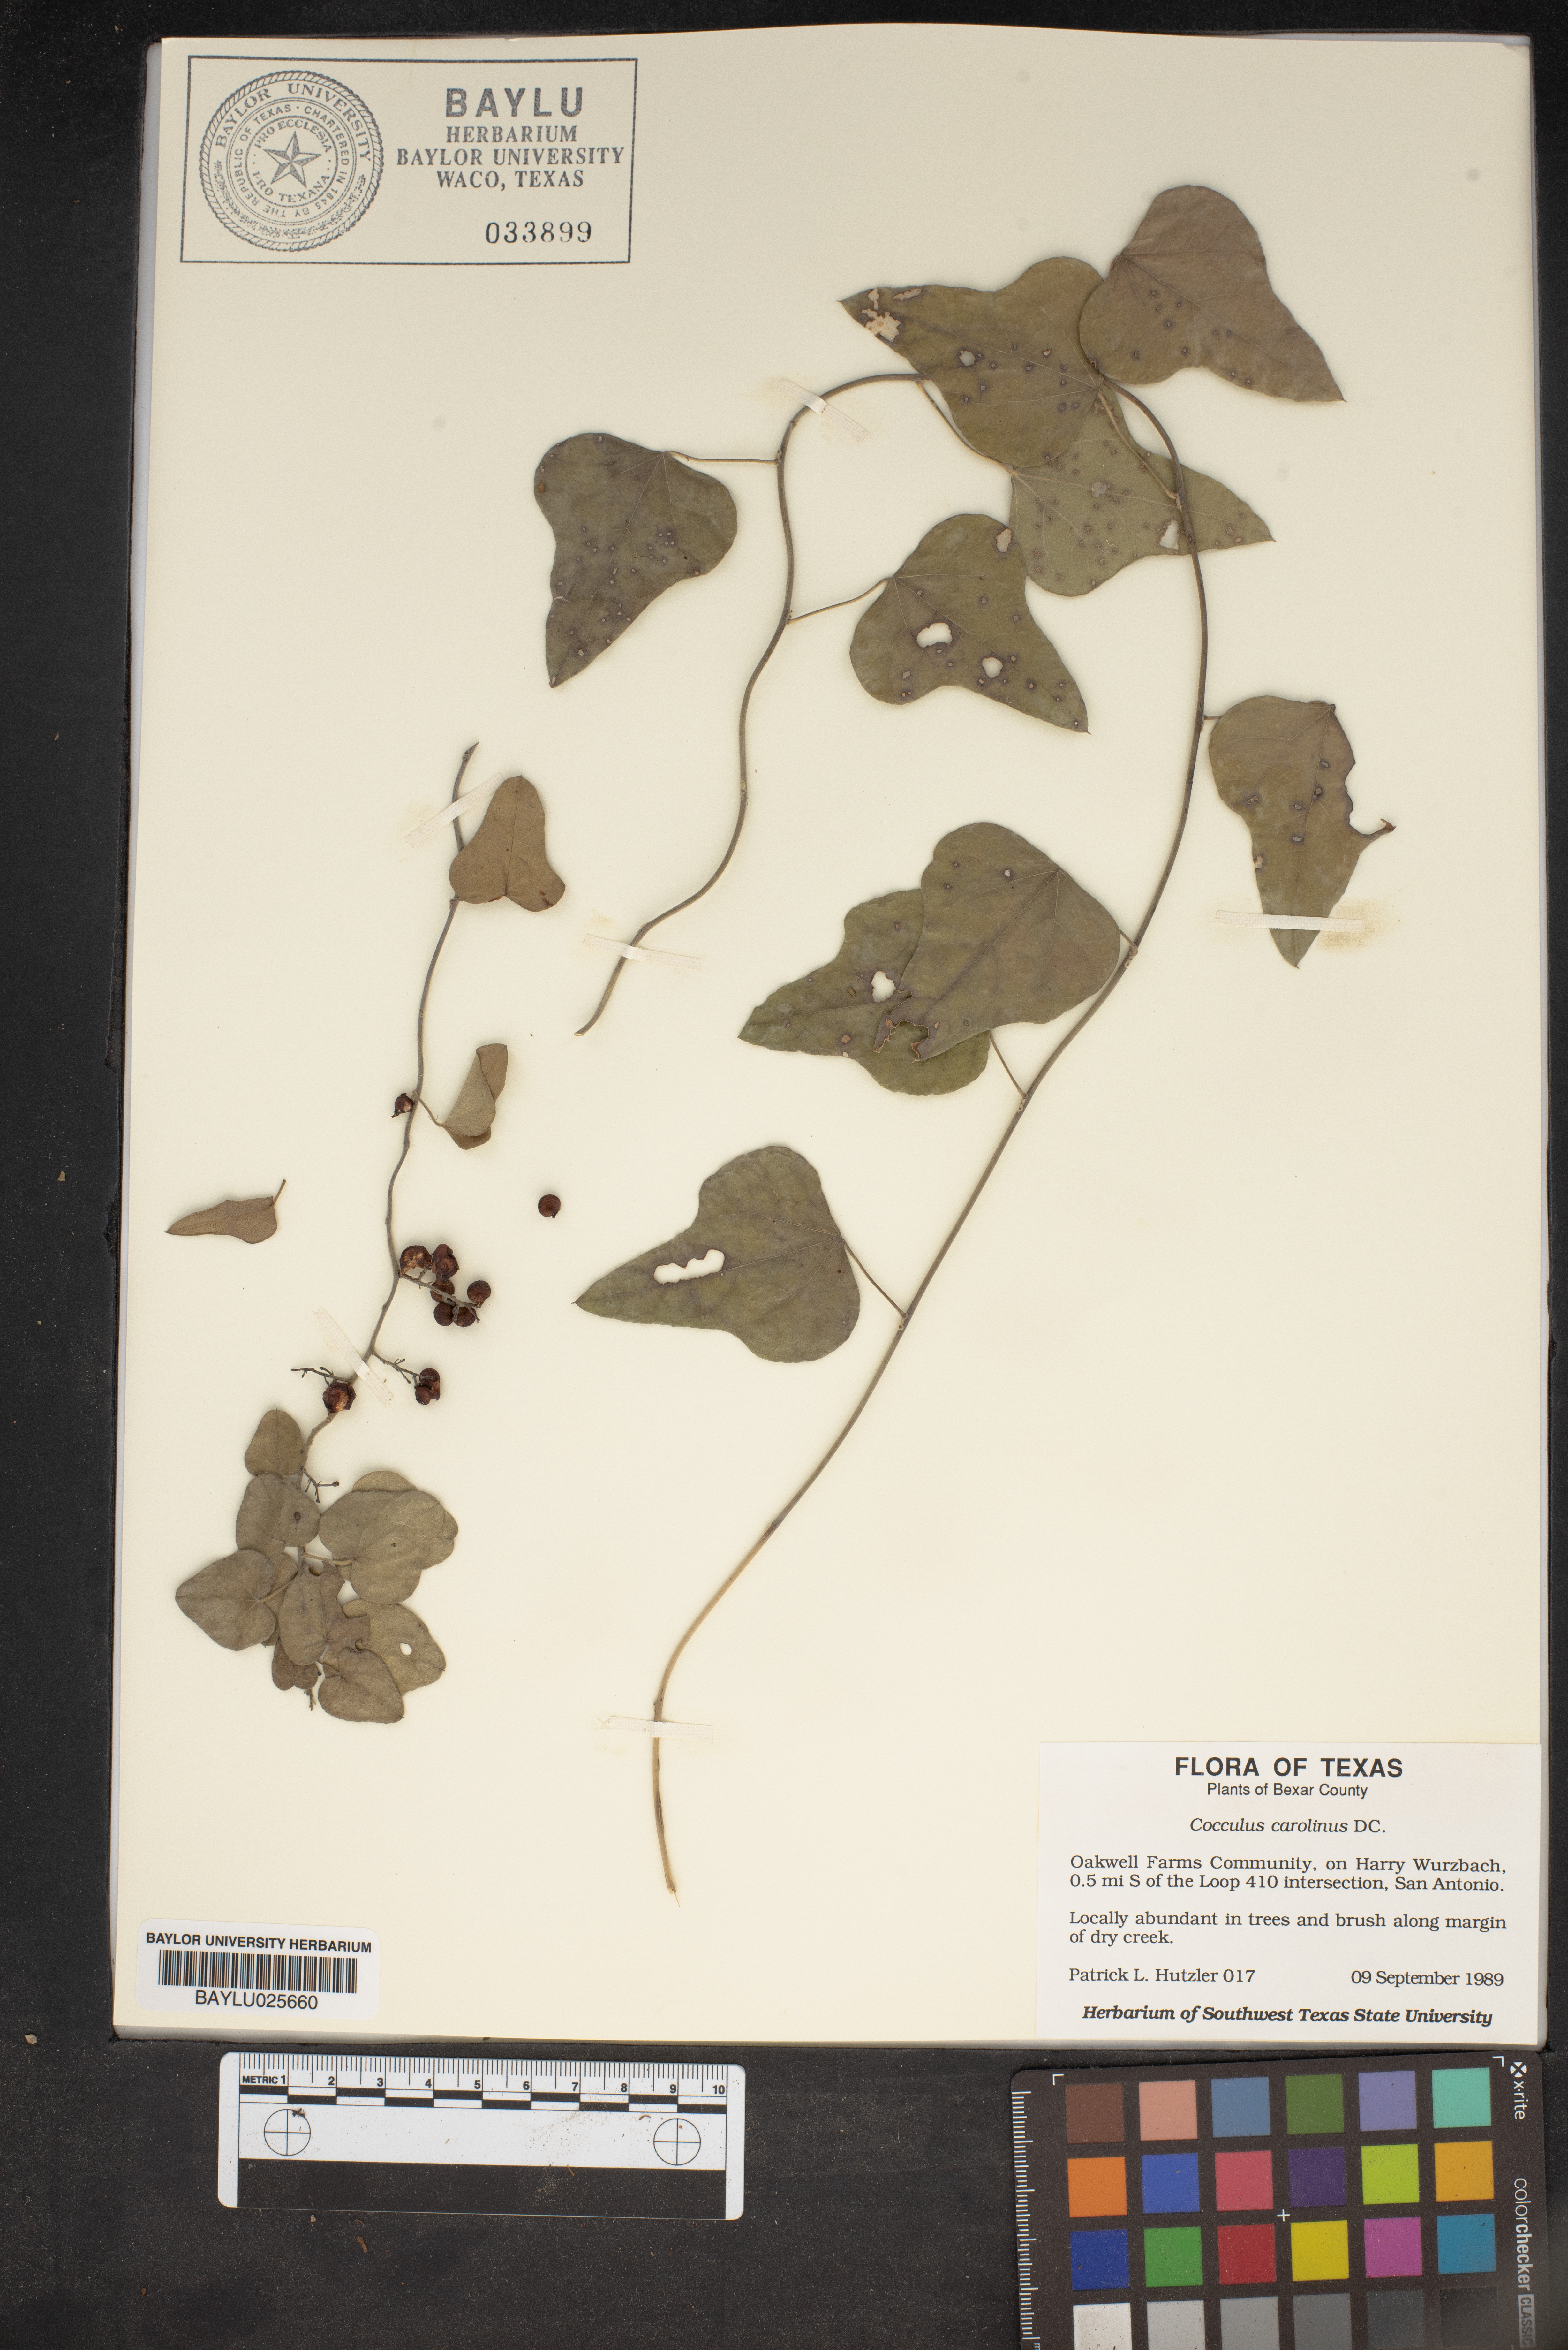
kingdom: Plantae
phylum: Tracheophyta
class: Magnoliopsida
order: Ranunculales
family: Menispermaceae
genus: Cocculus
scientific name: Cocculus carolinus
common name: Carolina moonseed
